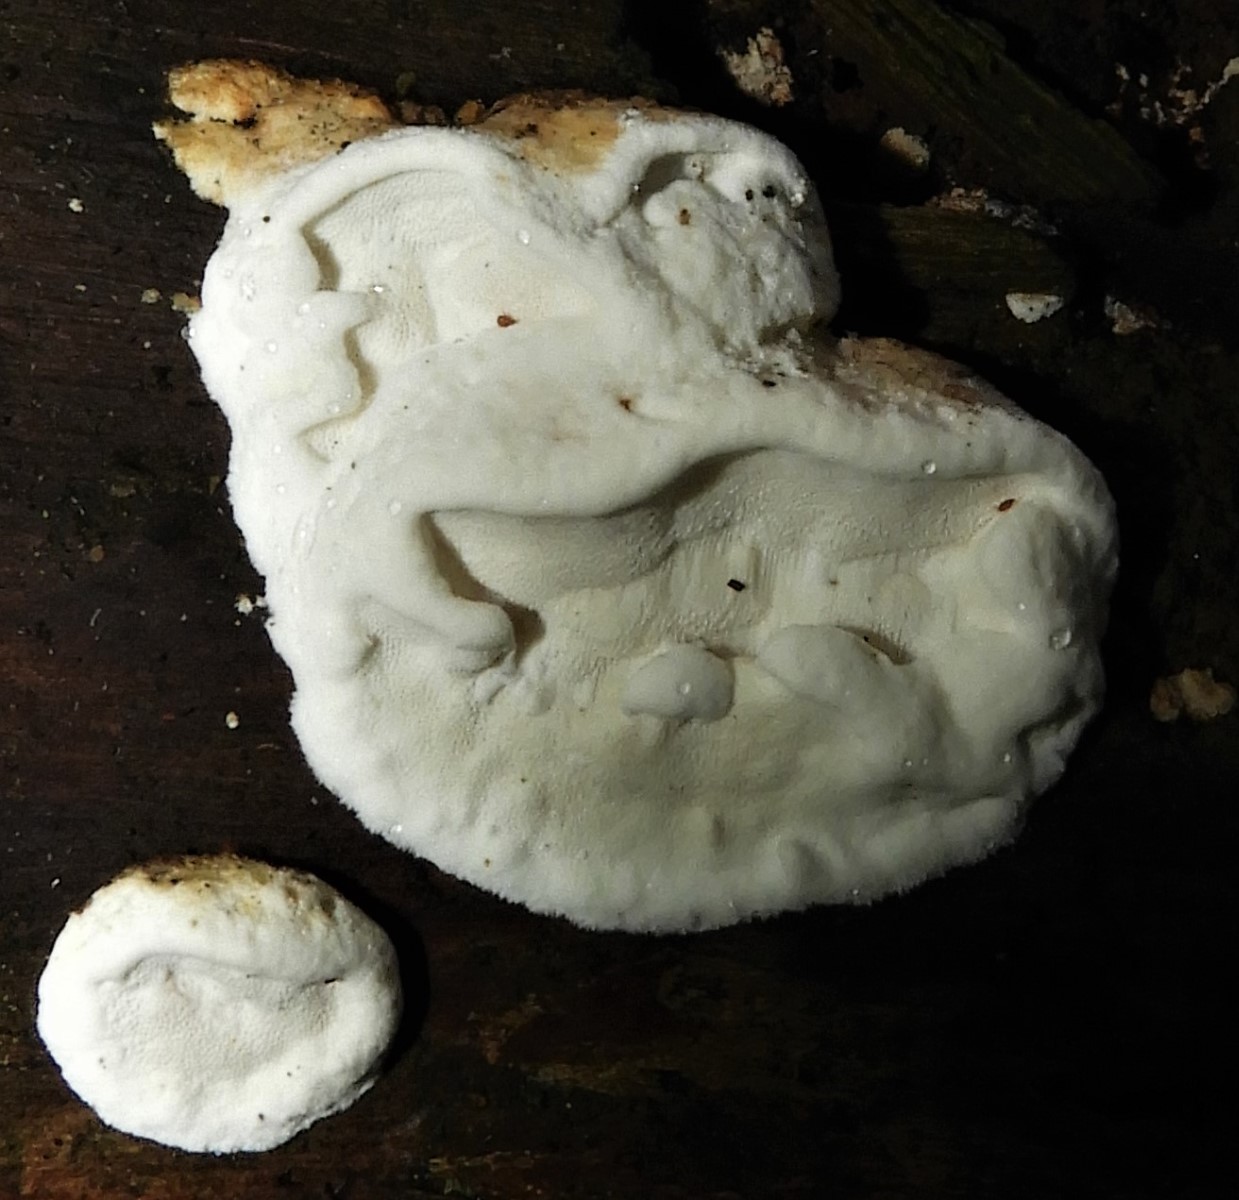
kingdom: Fungi
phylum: Basidiomycota
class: Agaricomycetes
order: Polyporales
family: Incrustoporiaceae
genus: Skeletocutis
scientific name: Skeletocutis nemoralis
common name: stor krystalporesvamp
